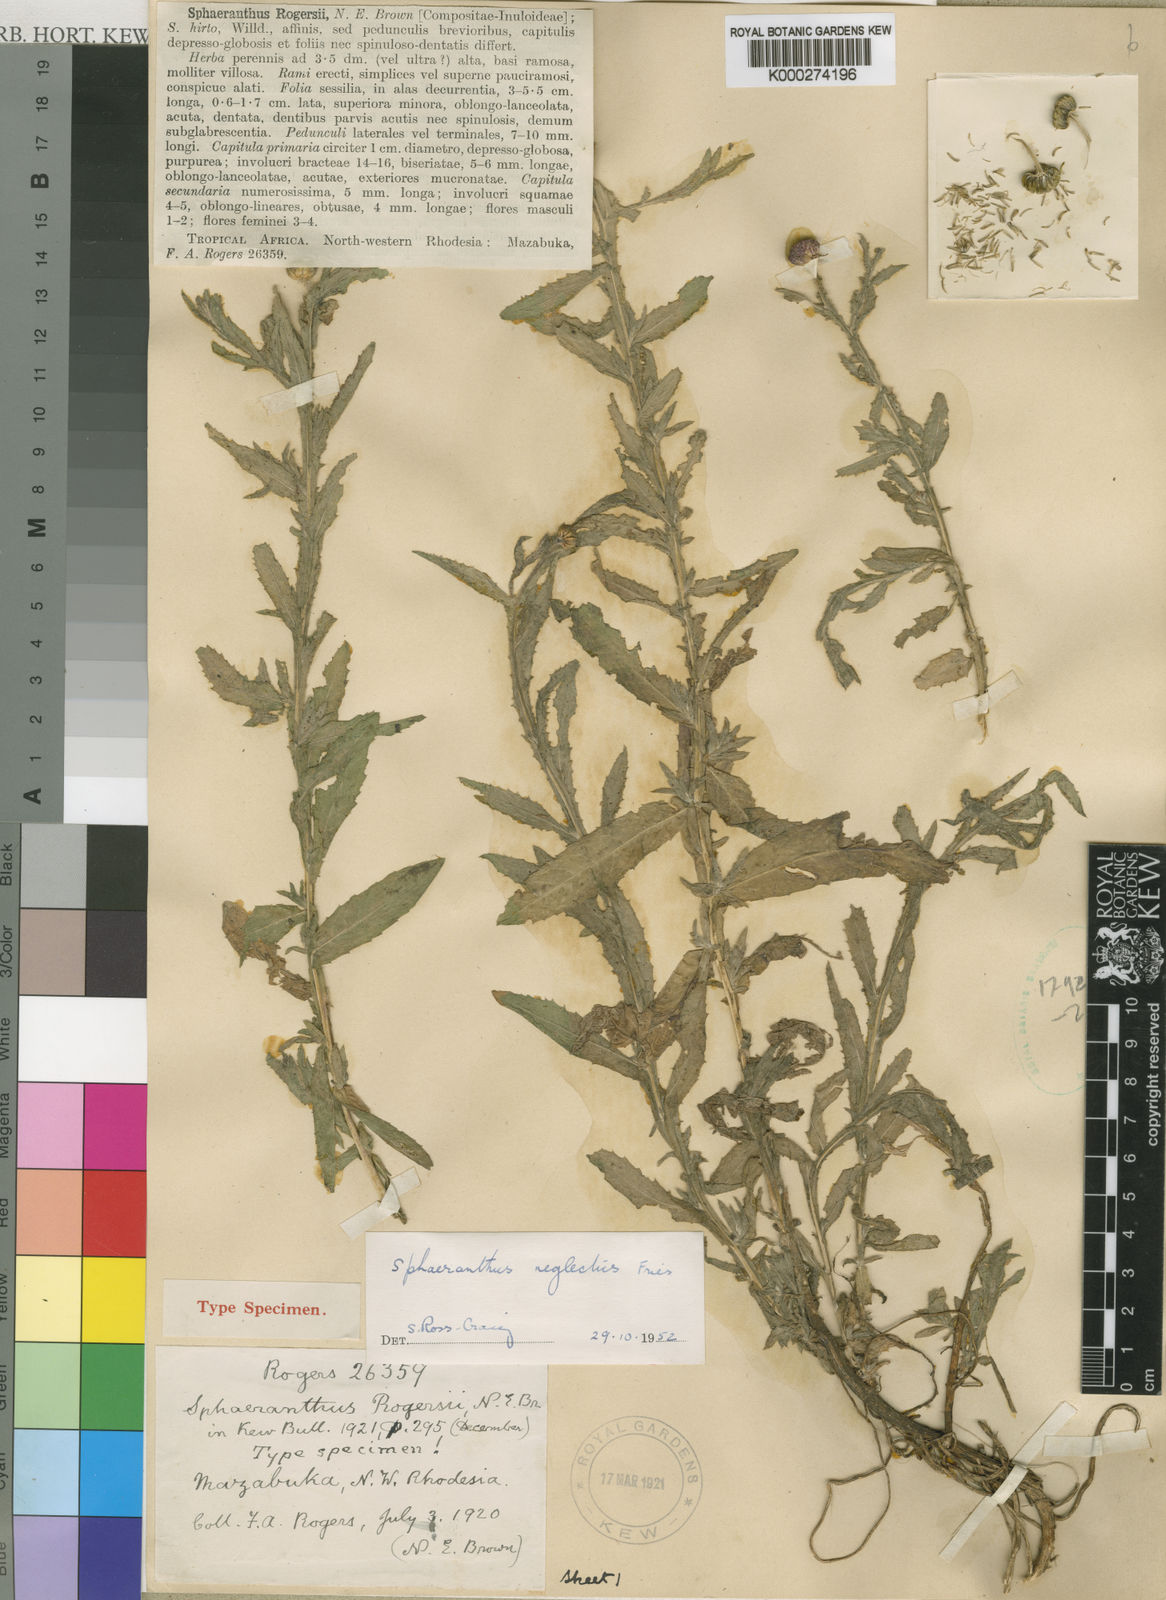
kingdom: Plantae
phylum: Tracheophyta
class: Magnoliopsida
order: Asterales
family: Asteraceae
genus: Sphaeranthus
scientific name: Sphaeranthus peduncularis
